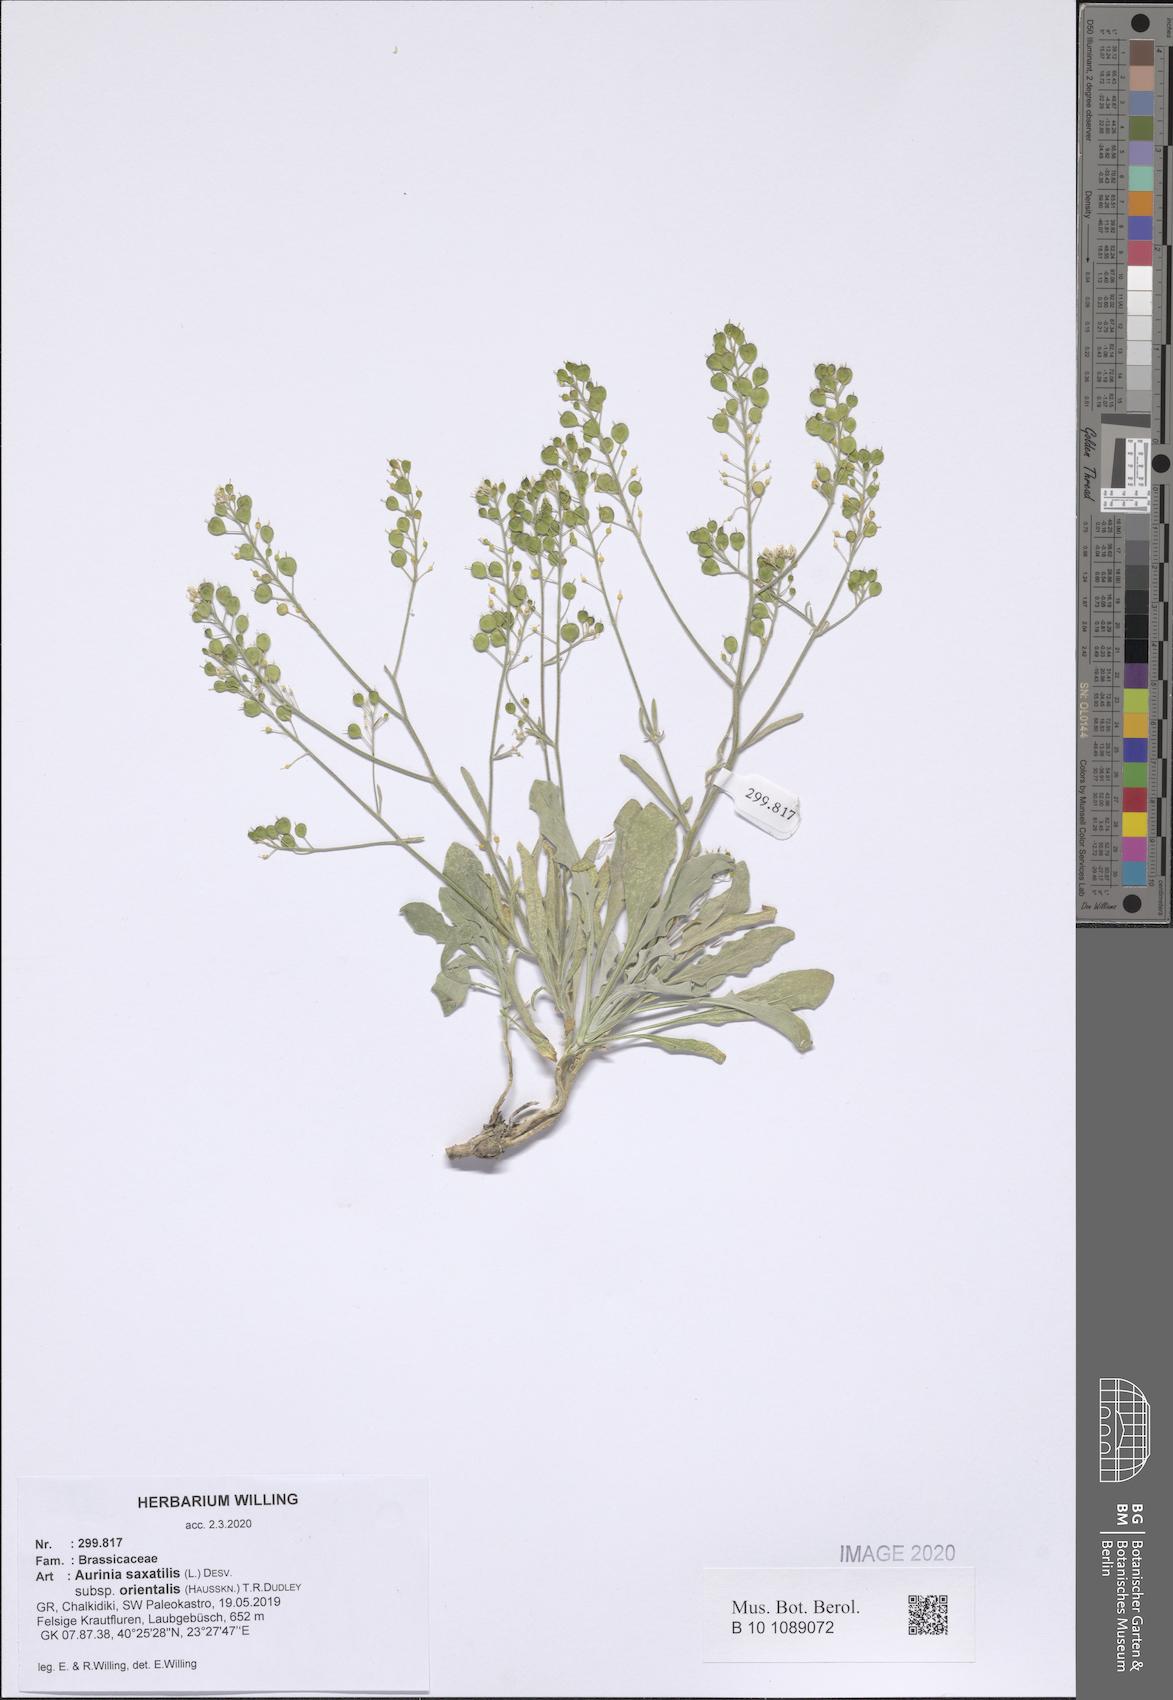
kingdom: Plantae
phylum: Tracheophyta
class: Magnoliopsida
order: Brassicales
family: Brassicaceae
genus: Aurinia
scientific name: Aurinia saxatilis
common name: Golden-tuft alyssum
